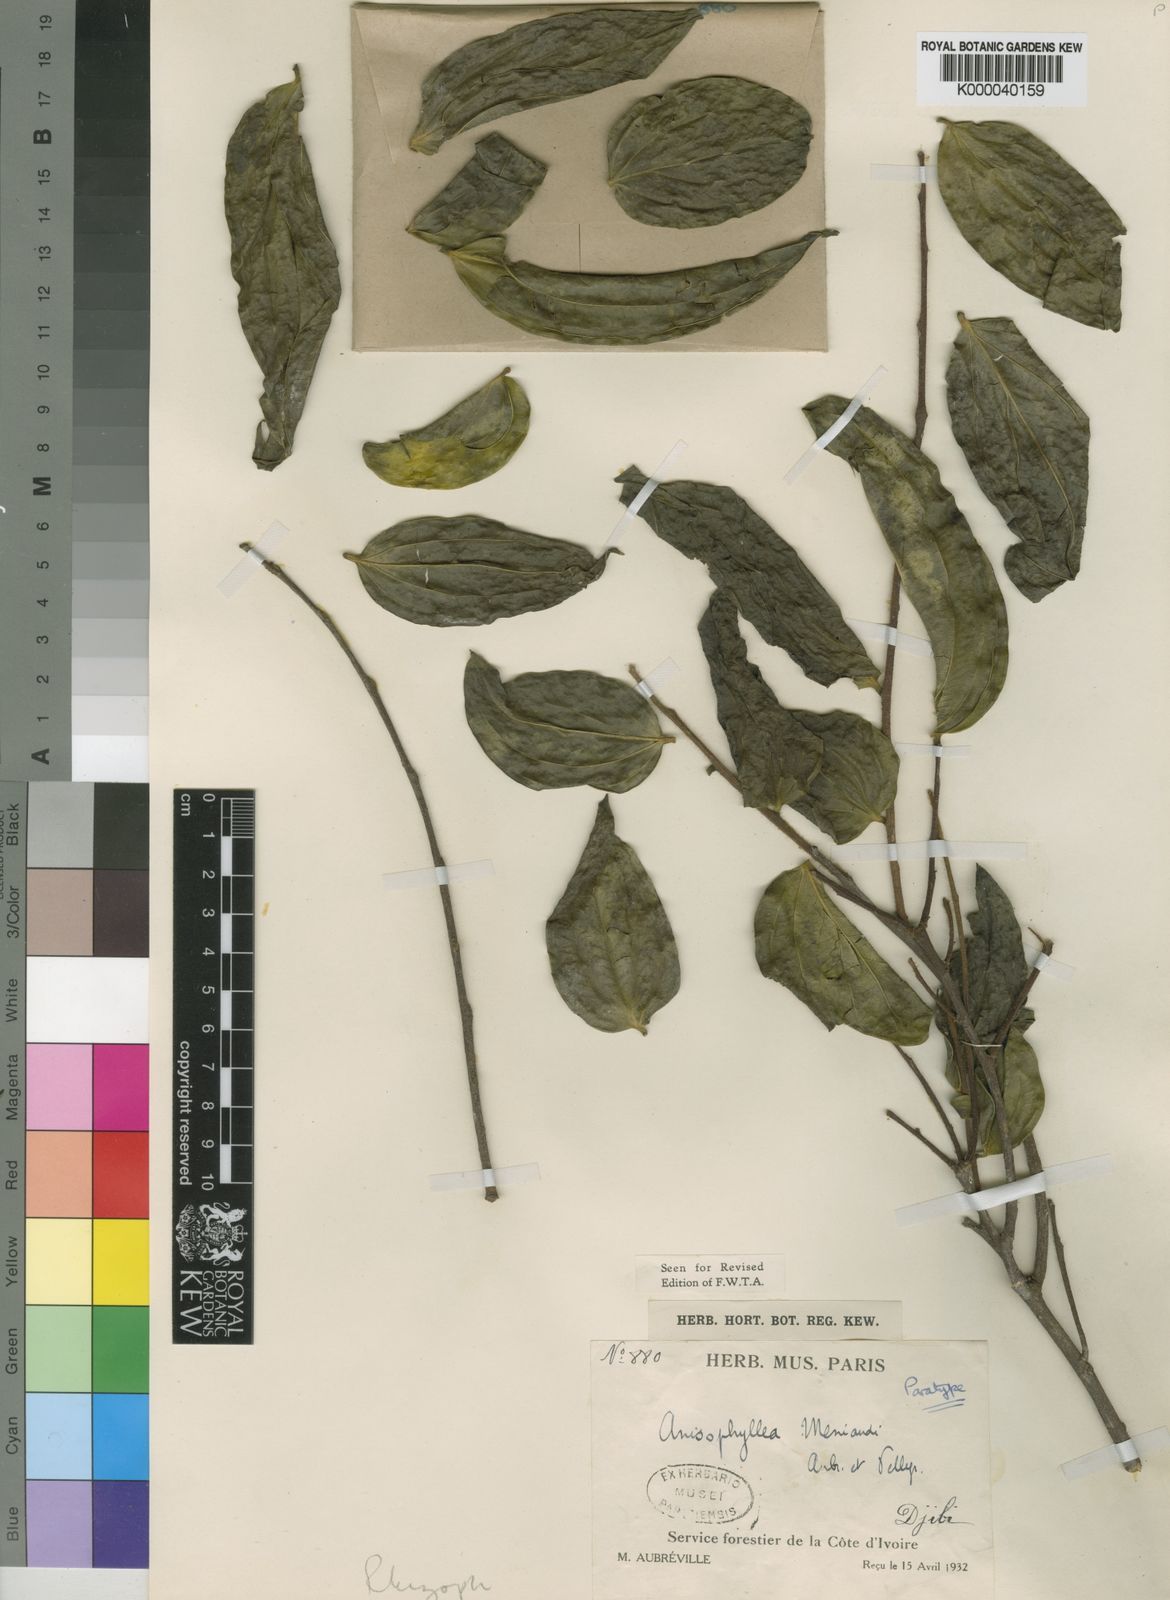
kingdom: Plantae
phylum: Tracheophyta
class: Magnoliopsida
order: Cucurbitales
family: Anisophylleaceae
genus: Anisophyllea
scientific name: Anisophyllea
